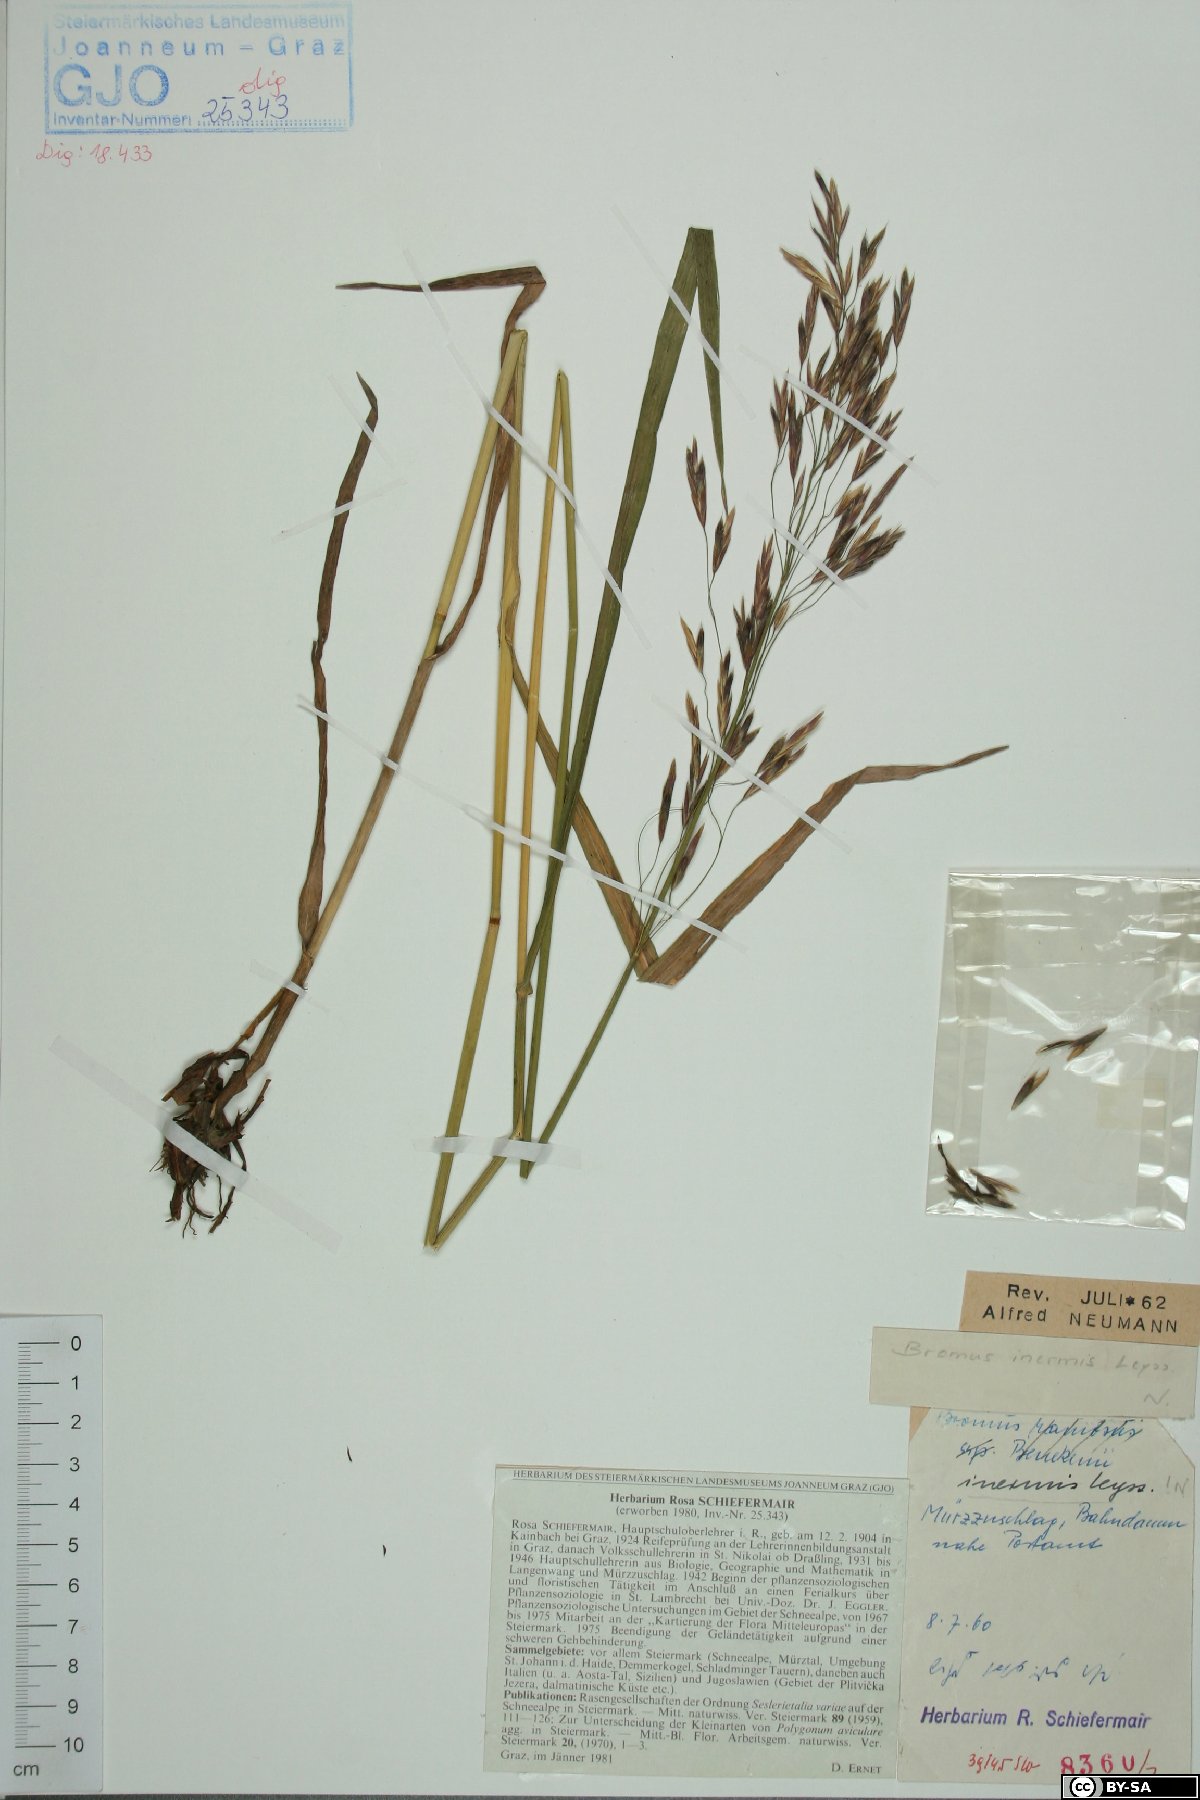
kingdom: Plantae
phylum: Tracheophyta
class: Liliopsida
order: Poales
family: Poaceae
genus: Bromus
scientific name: Bromus inermis
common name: Smooth brome
